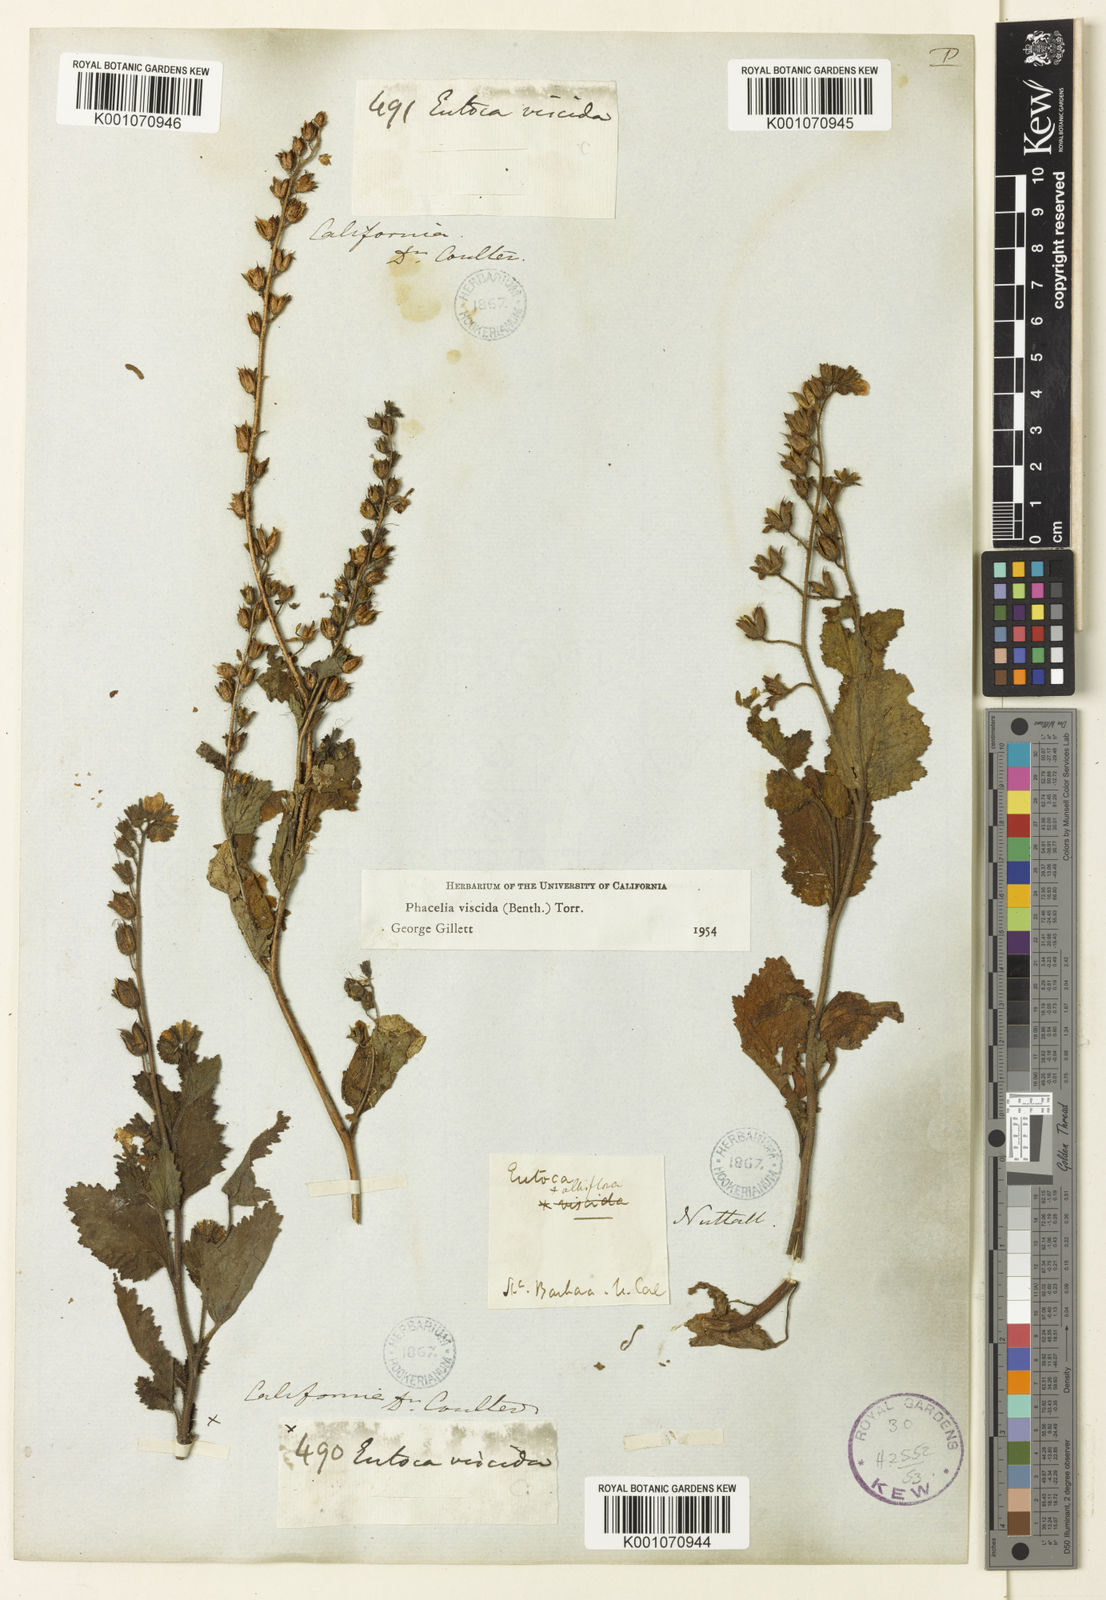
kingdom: Plantae
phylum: Tracheophyta
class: Magnoliopsida
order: Boraginales
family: Hydrophyllaceae
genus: Phacelia
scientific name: Phacelia viscida
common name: Sticky phacelia
